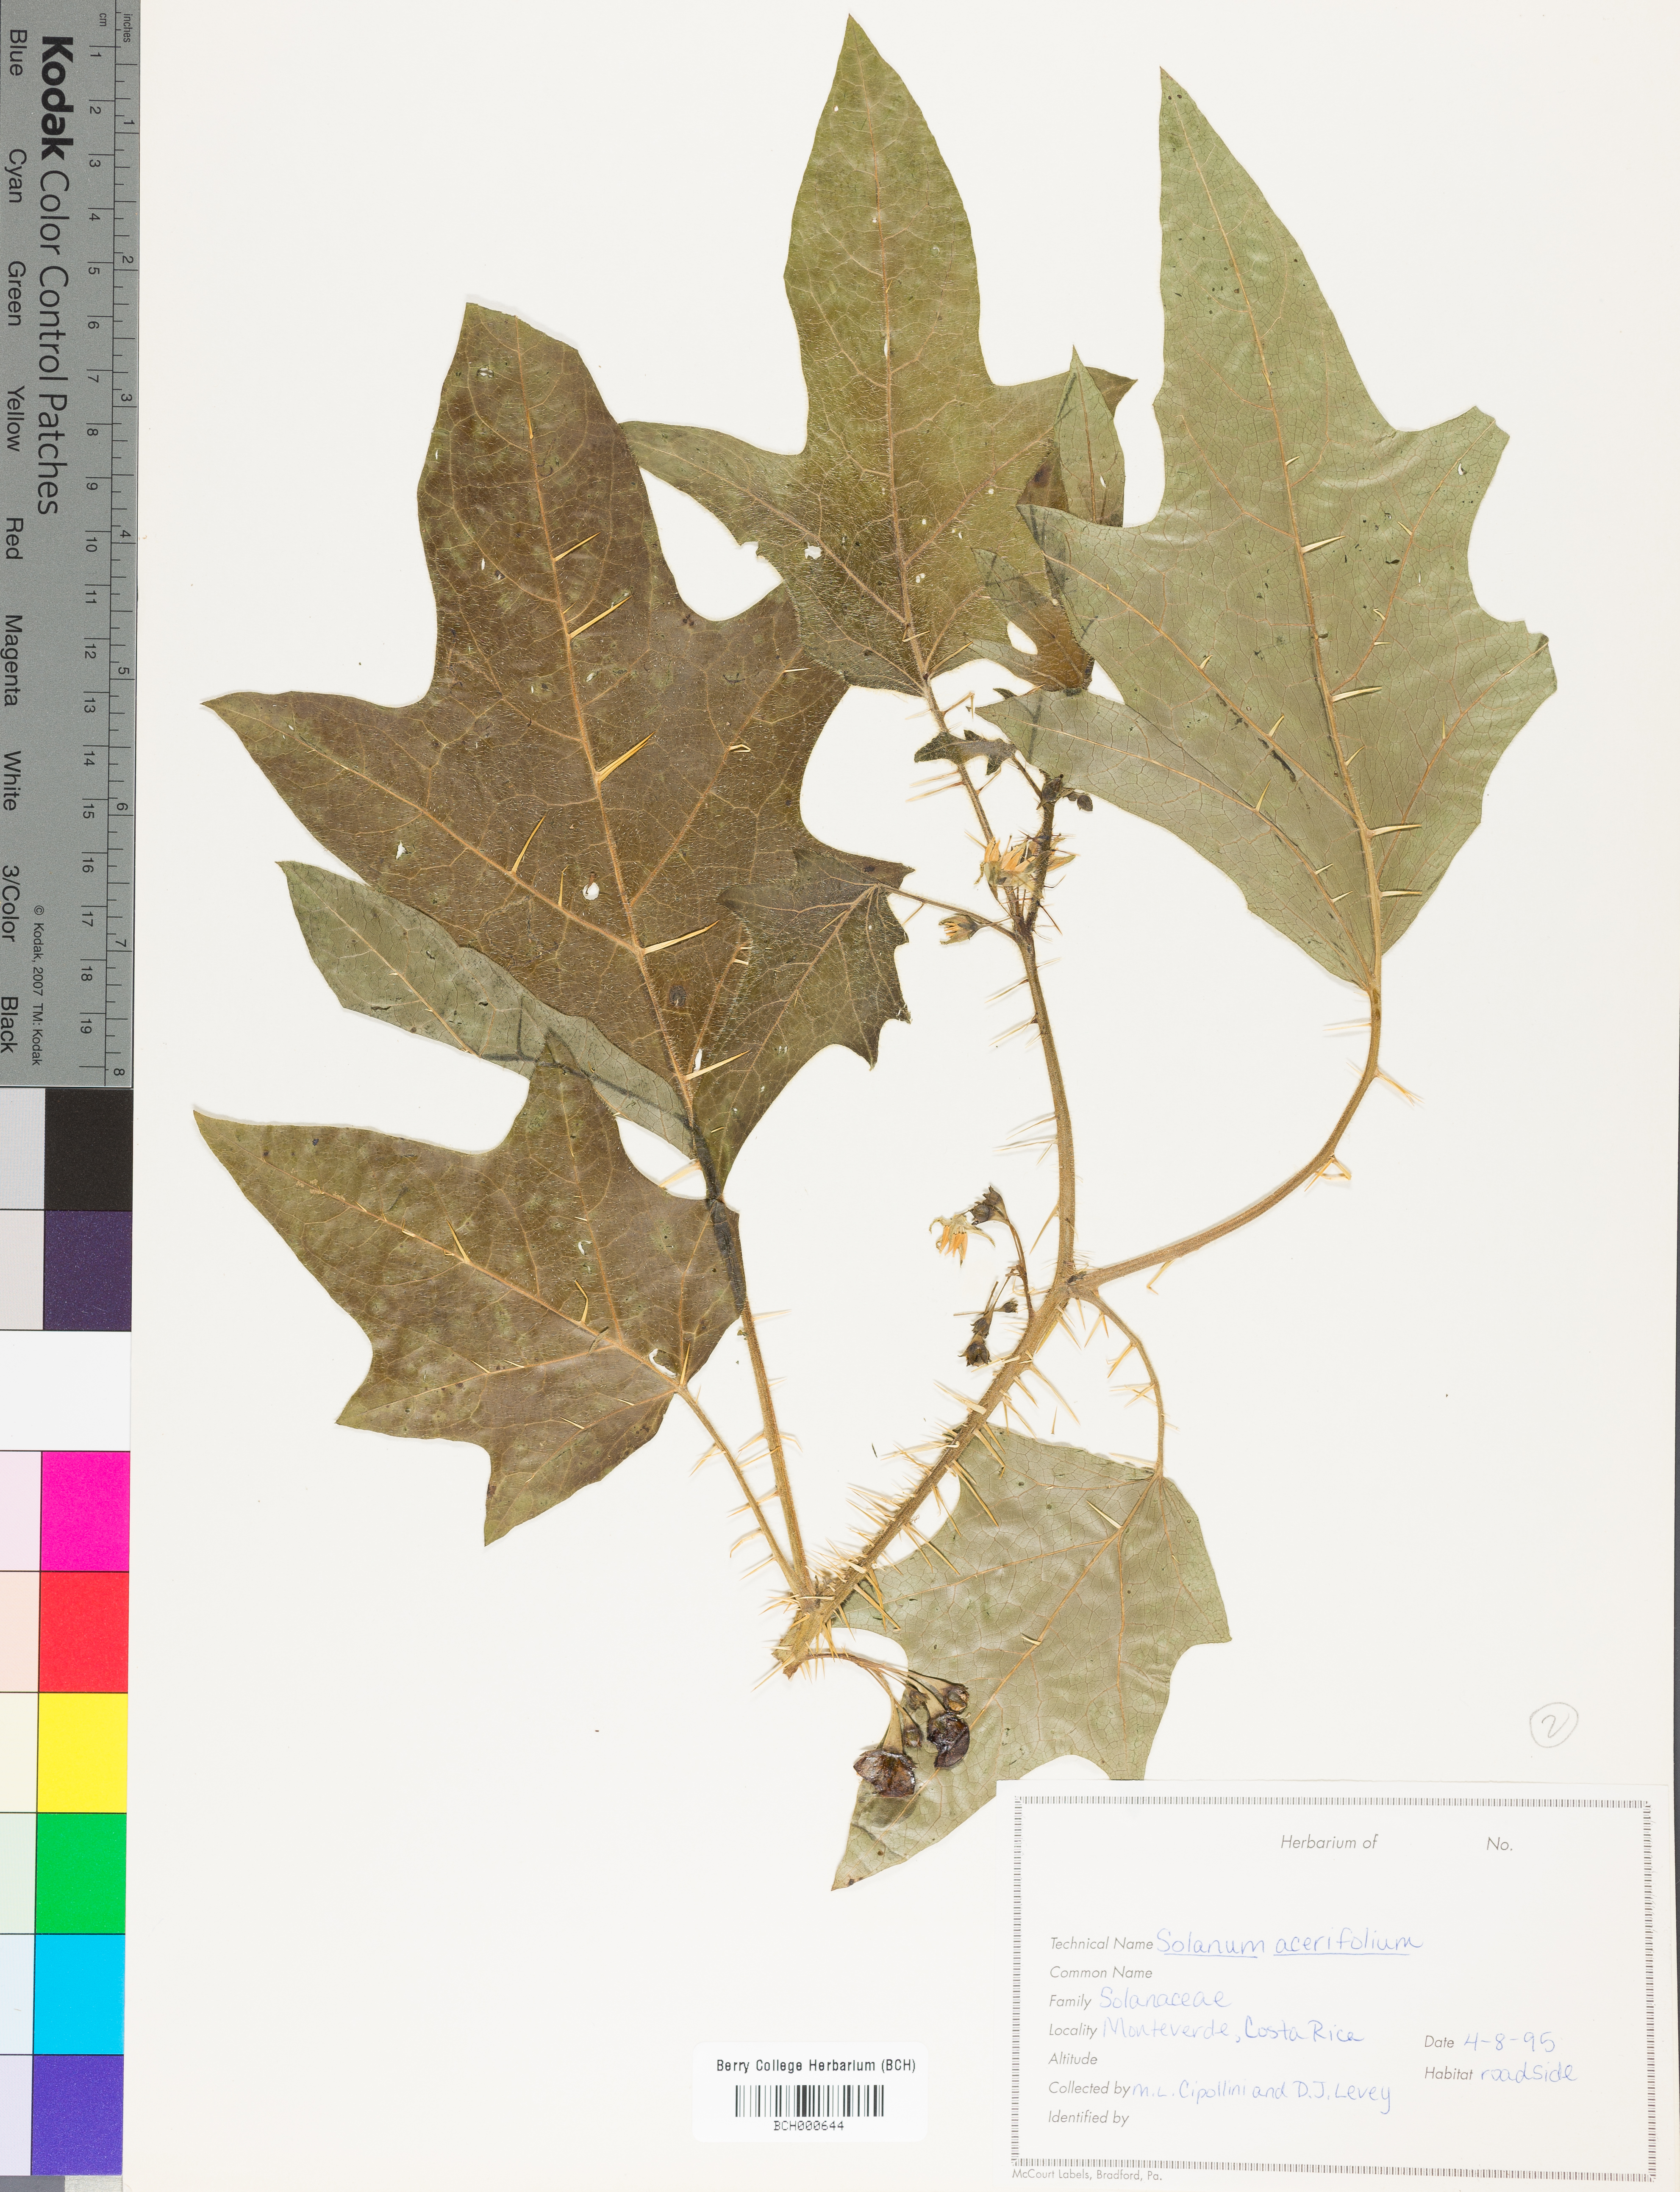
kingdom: Plantae
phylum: Tracheophyta
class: Magnoliopsida
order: Solanales
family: Solanaceae
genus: Solanum
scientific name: Solanum acerifolium
